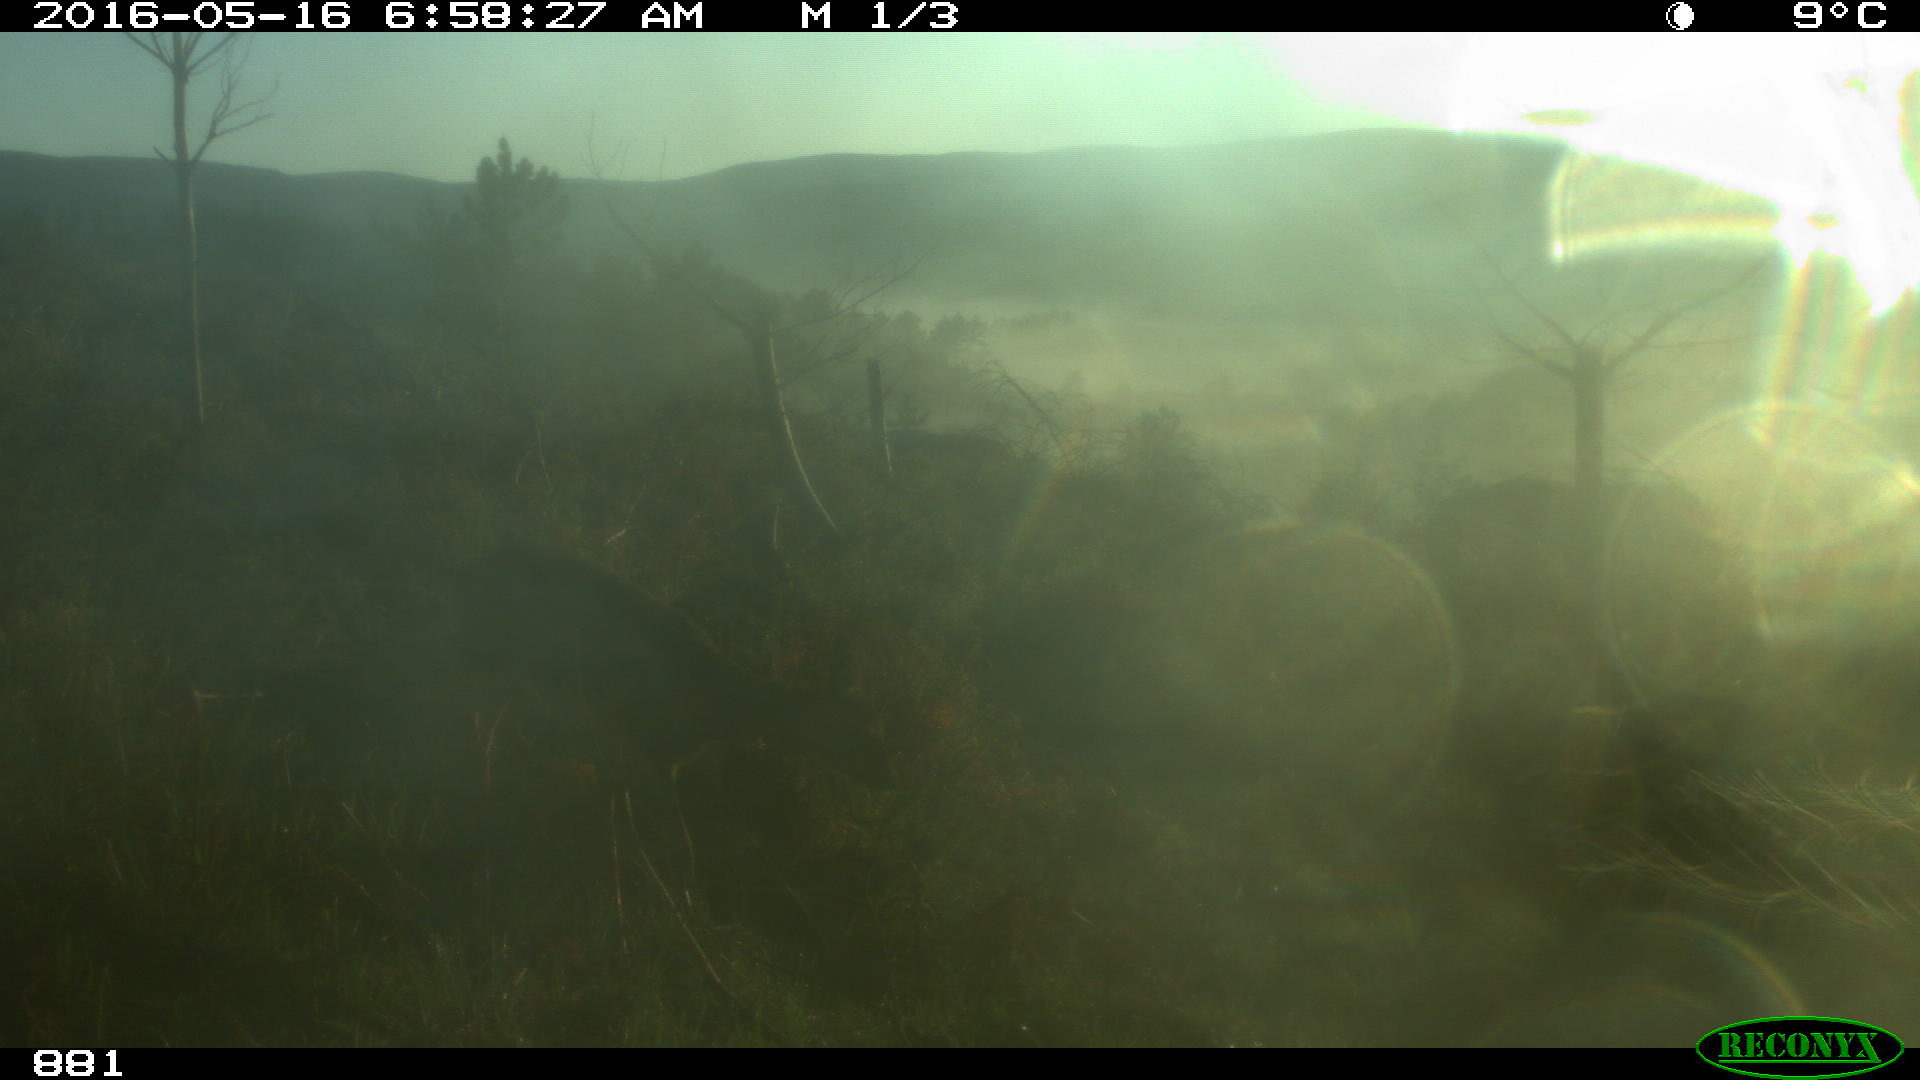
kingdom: Animalia
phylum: Chordata
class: Mammalia
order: Artiodactyla
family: Cervidae
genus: Capreolus
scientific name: Capreolus capreolus
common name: Western roe deer
